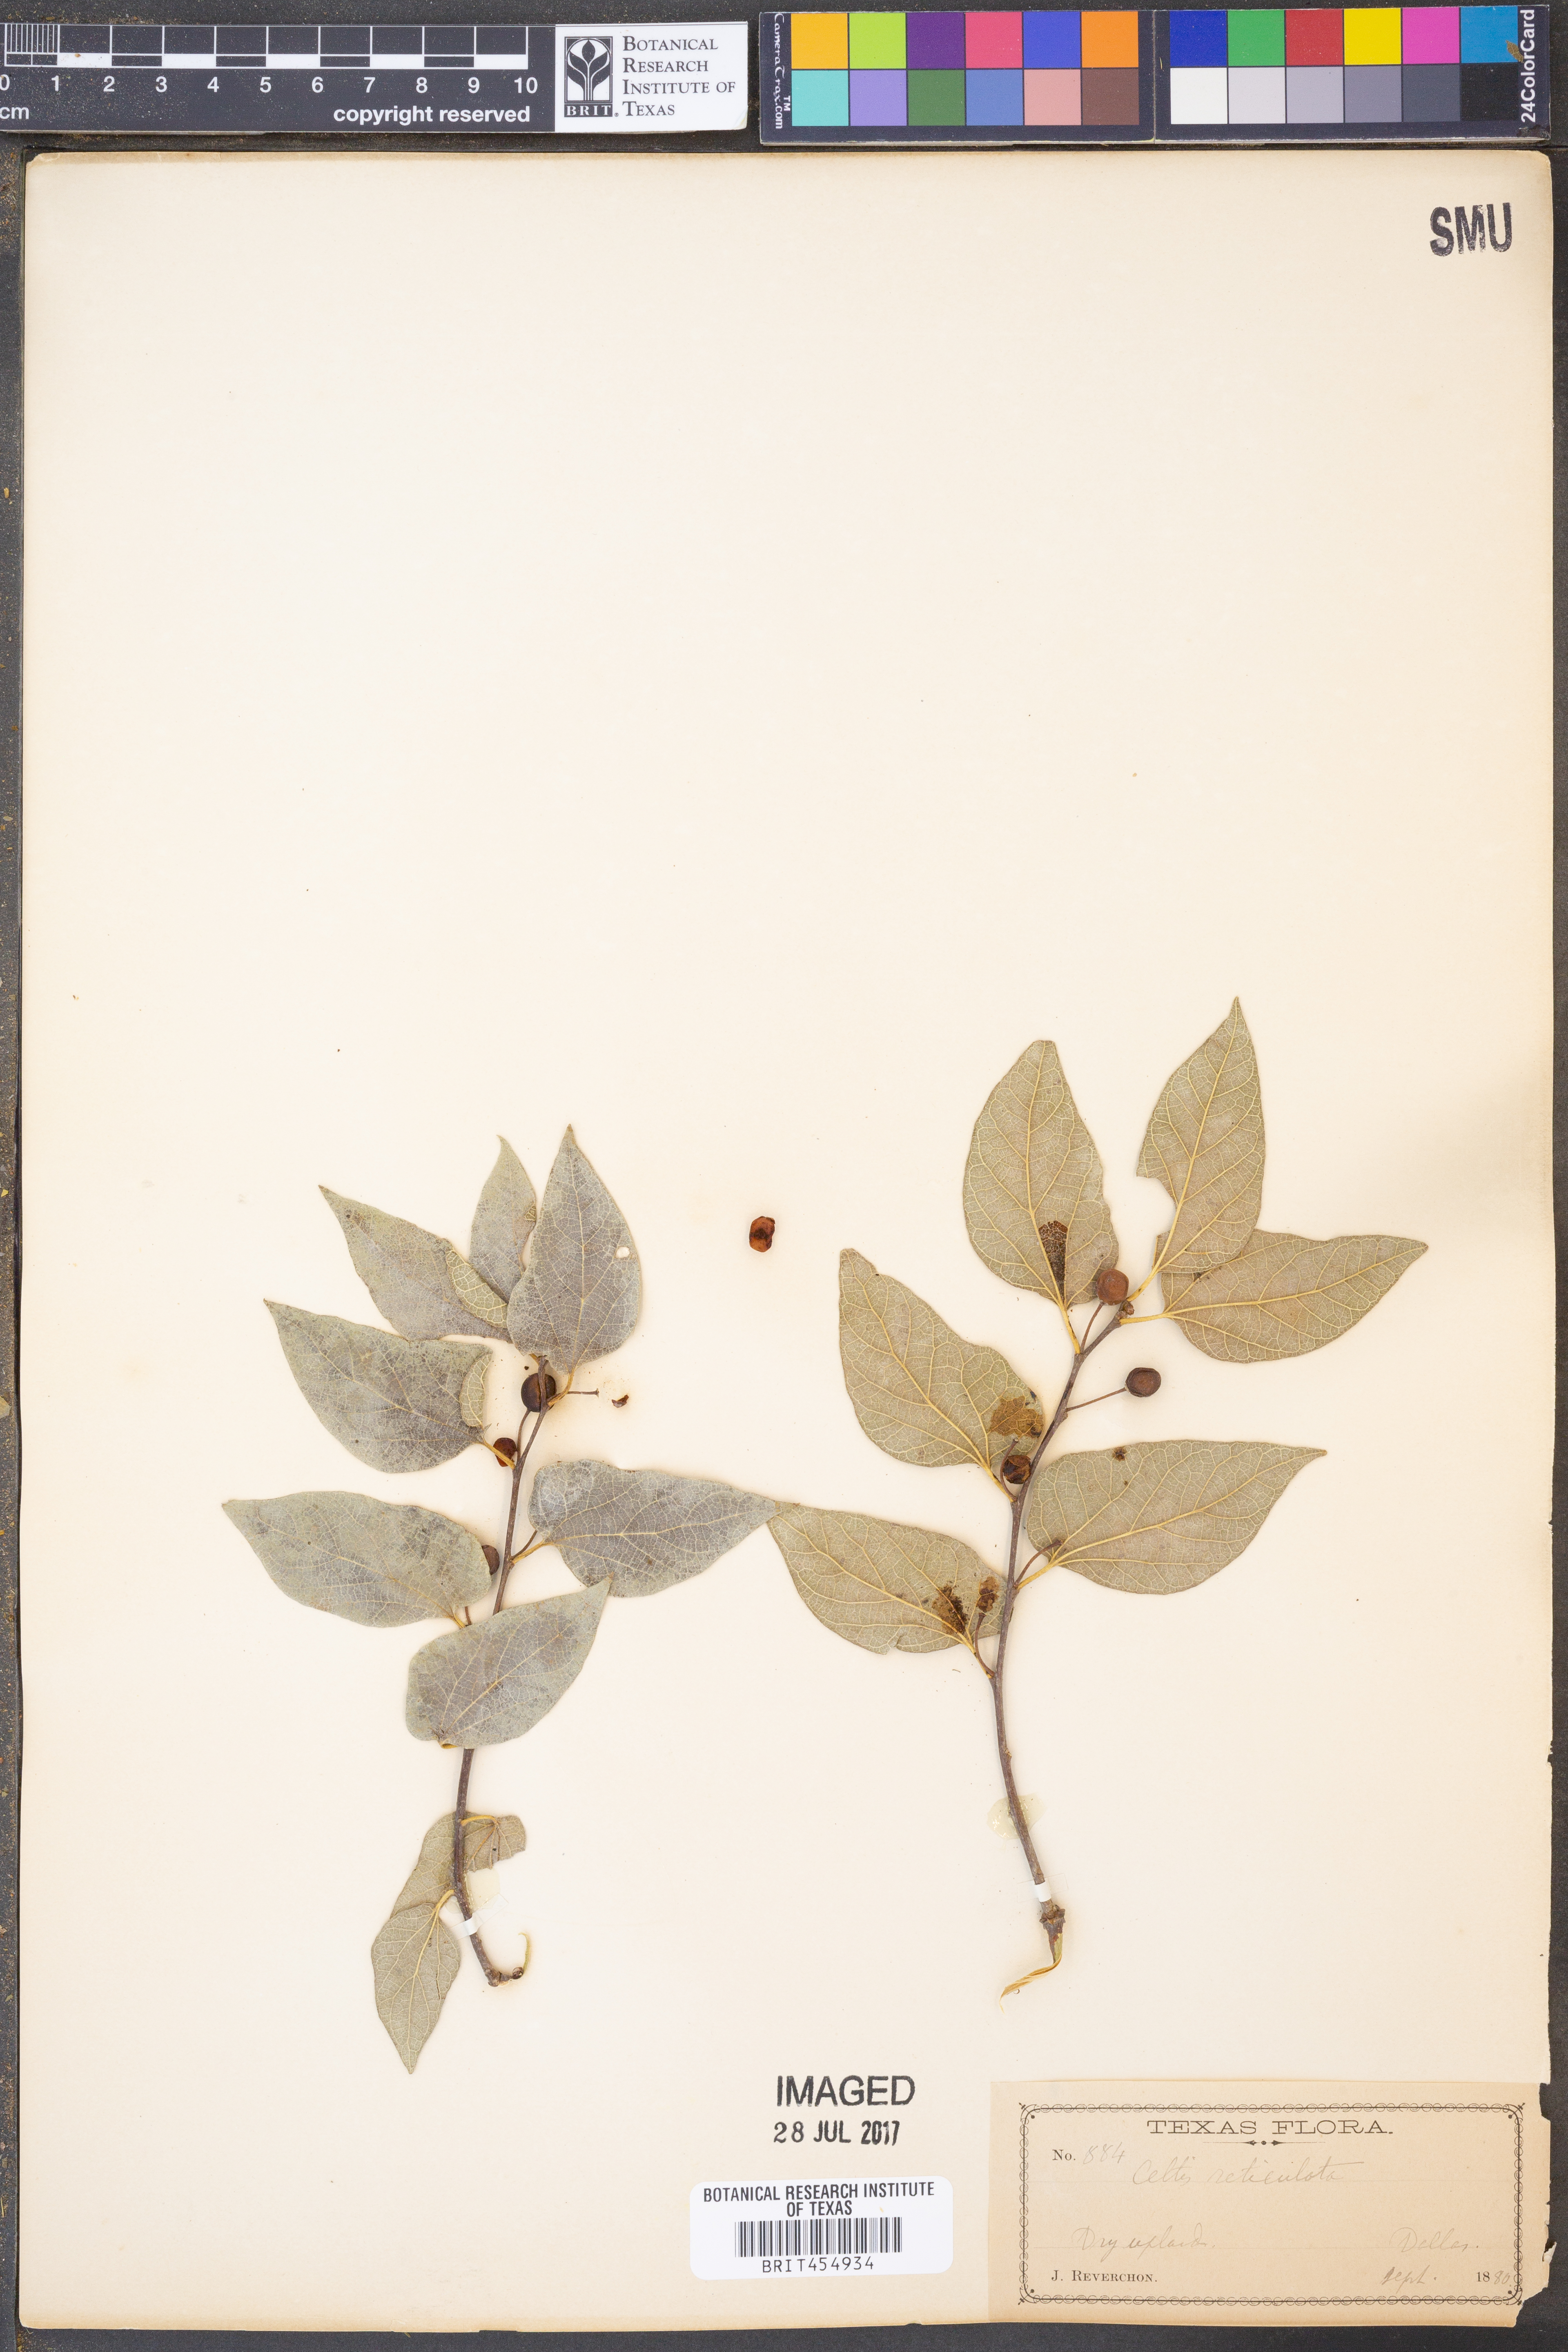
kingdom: Plantae
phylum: Tracheophyta
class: Magnoliopsida
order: Rosales
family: Cannabaceae
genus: Celtis
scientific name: Celtis reticulata
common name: Netleaf hackberry
